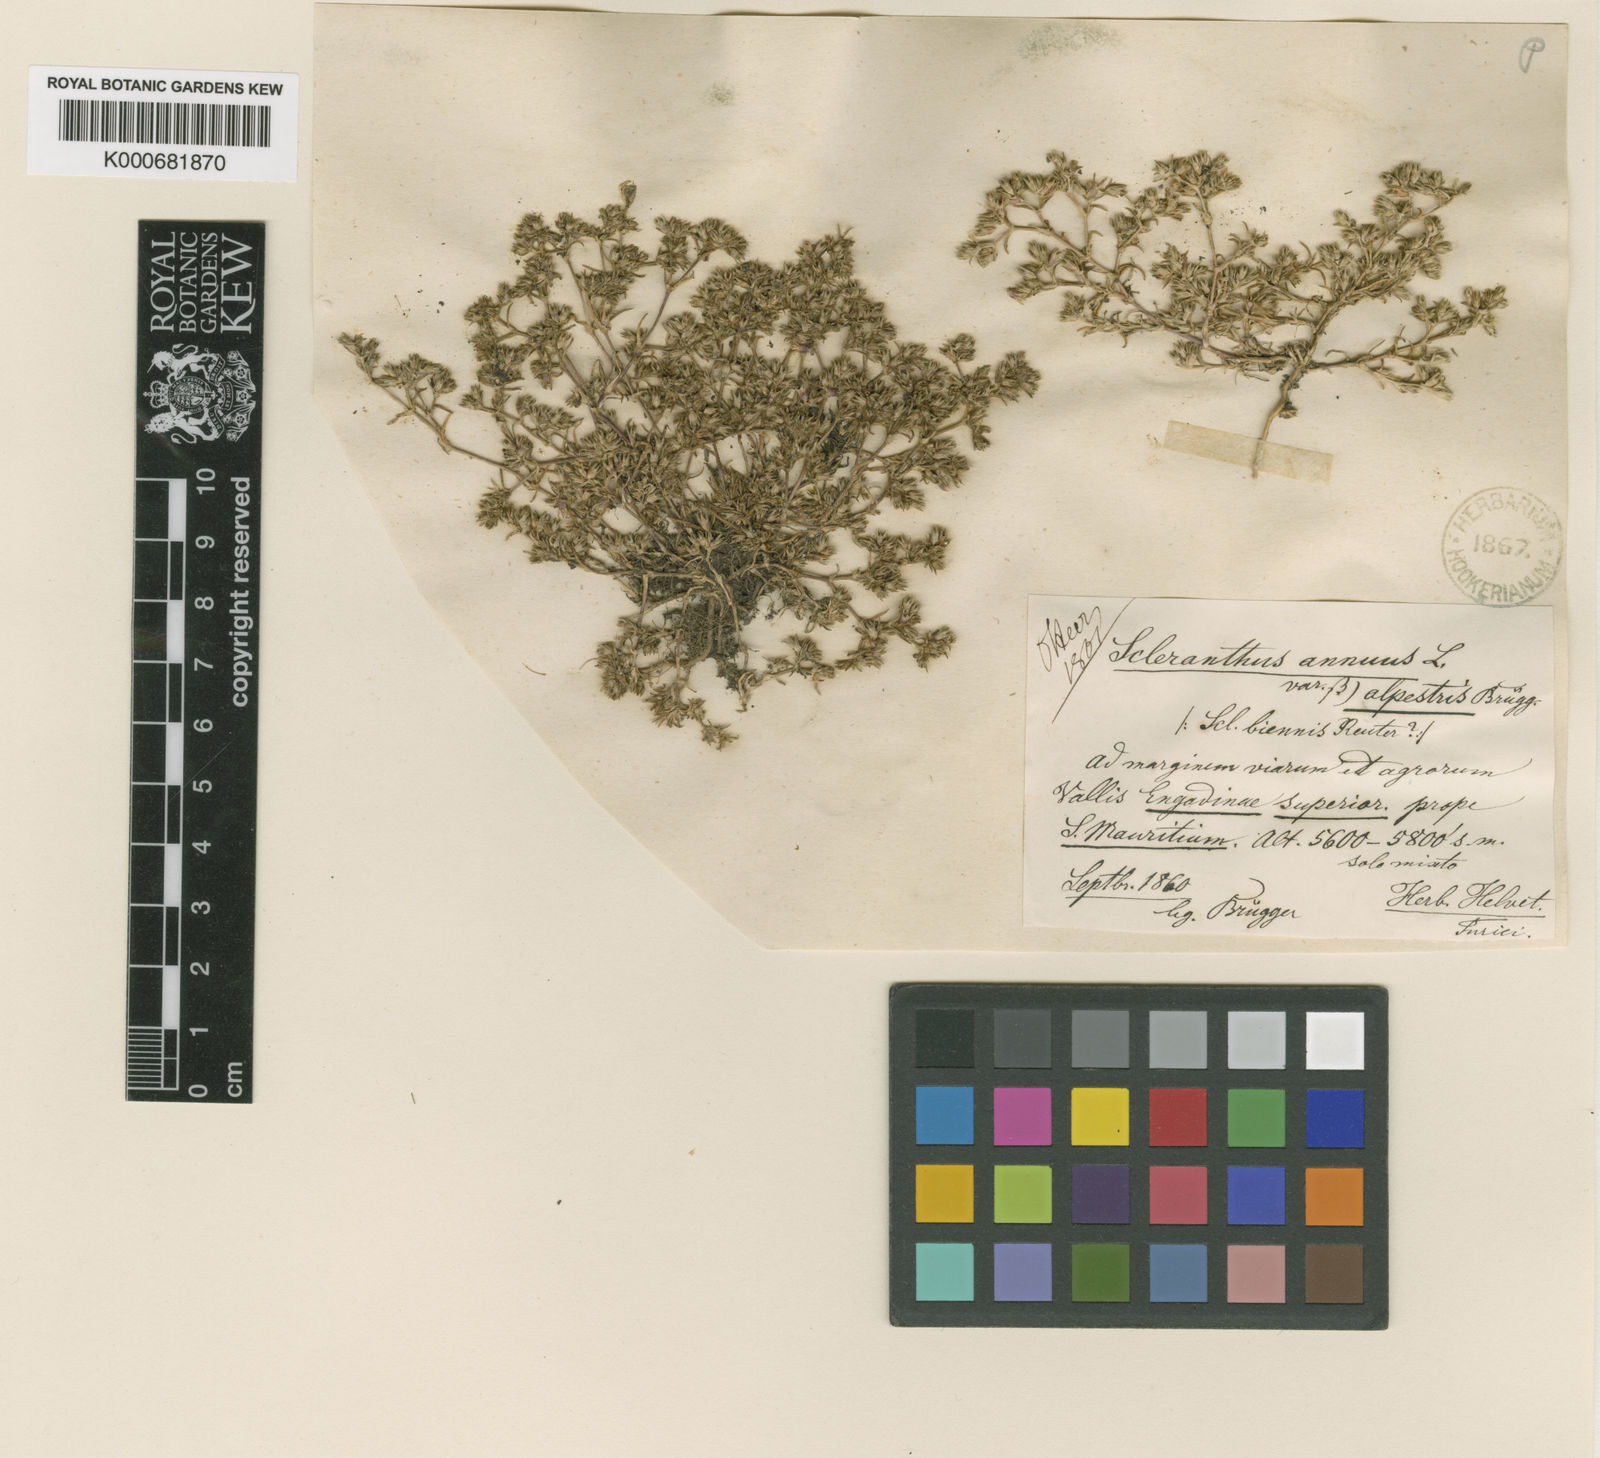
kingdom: Plantae
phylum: Tracheophyta
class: Magnoliopsida
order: Caryophyllales
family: Caryophyllaceae
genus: Scleranthus
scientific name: Scleranthus annuus
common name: Annual knawel
